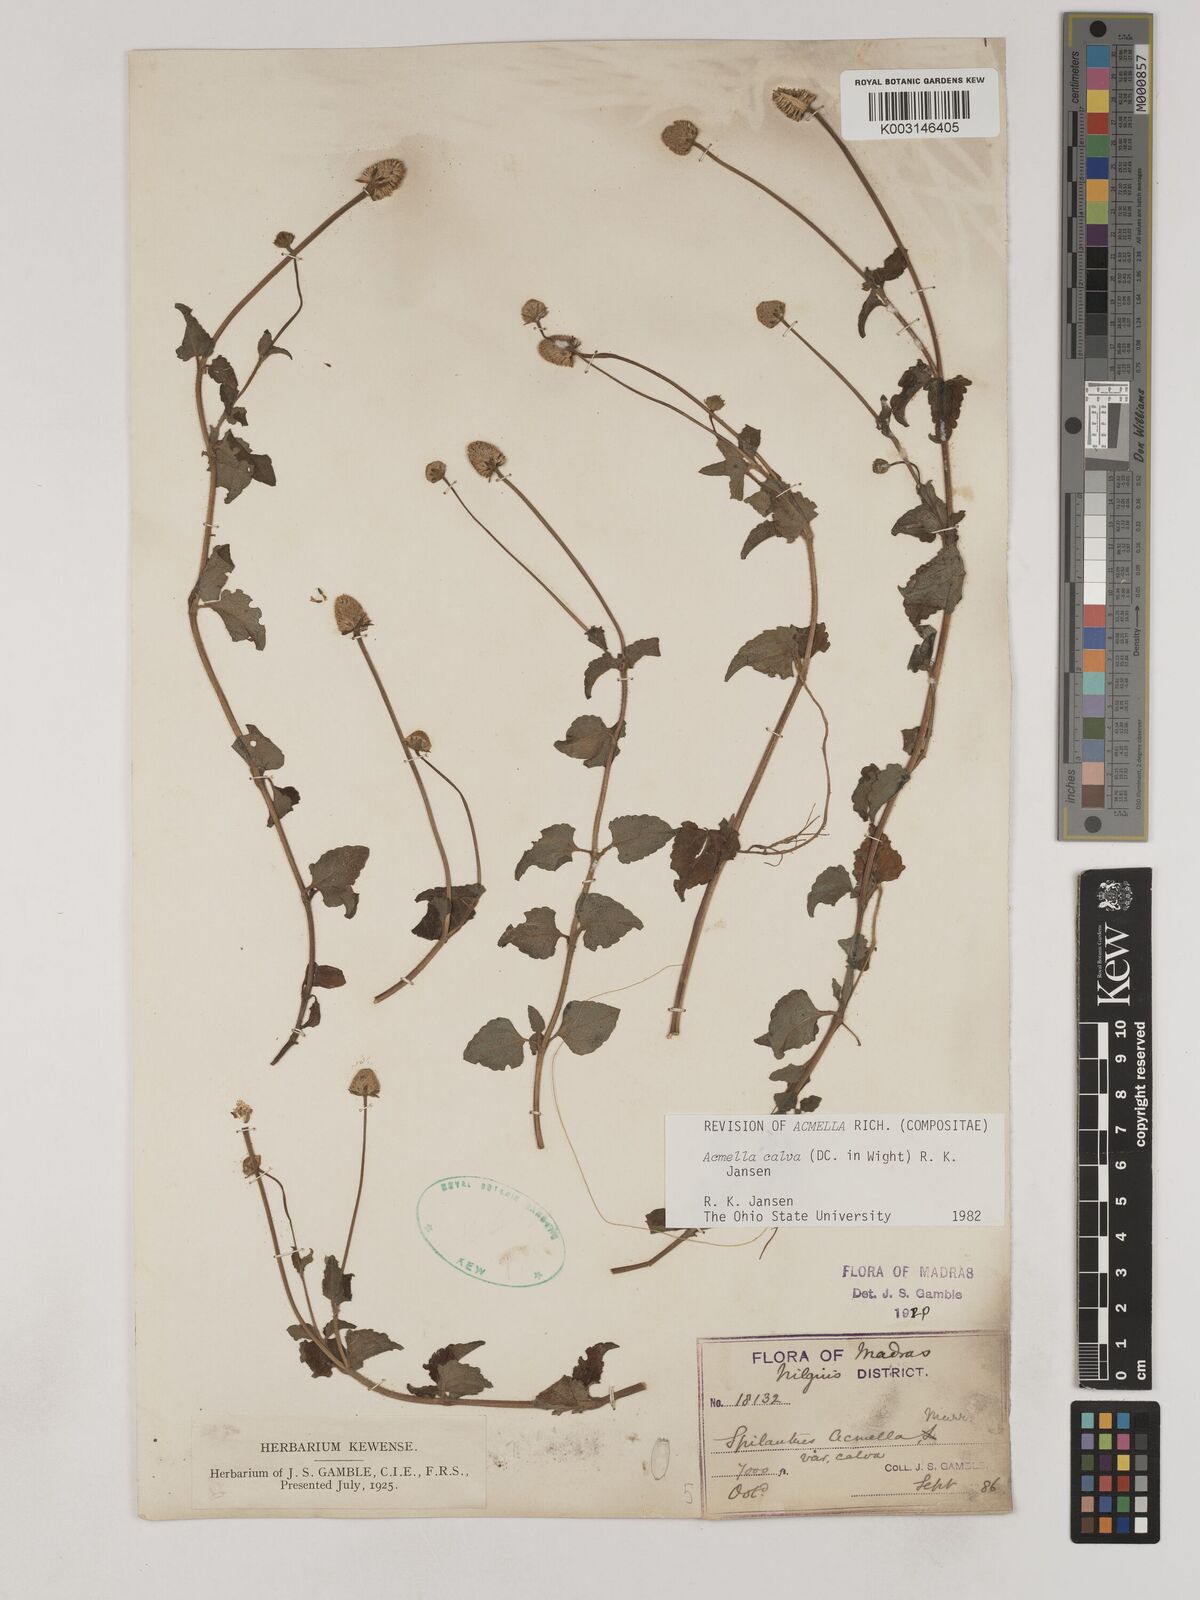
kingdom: Plantae
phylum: Tracheophyta
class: Magnoliopsida
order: Asterales
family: Asteraceae
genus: Acmella
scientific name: Acmella calva
